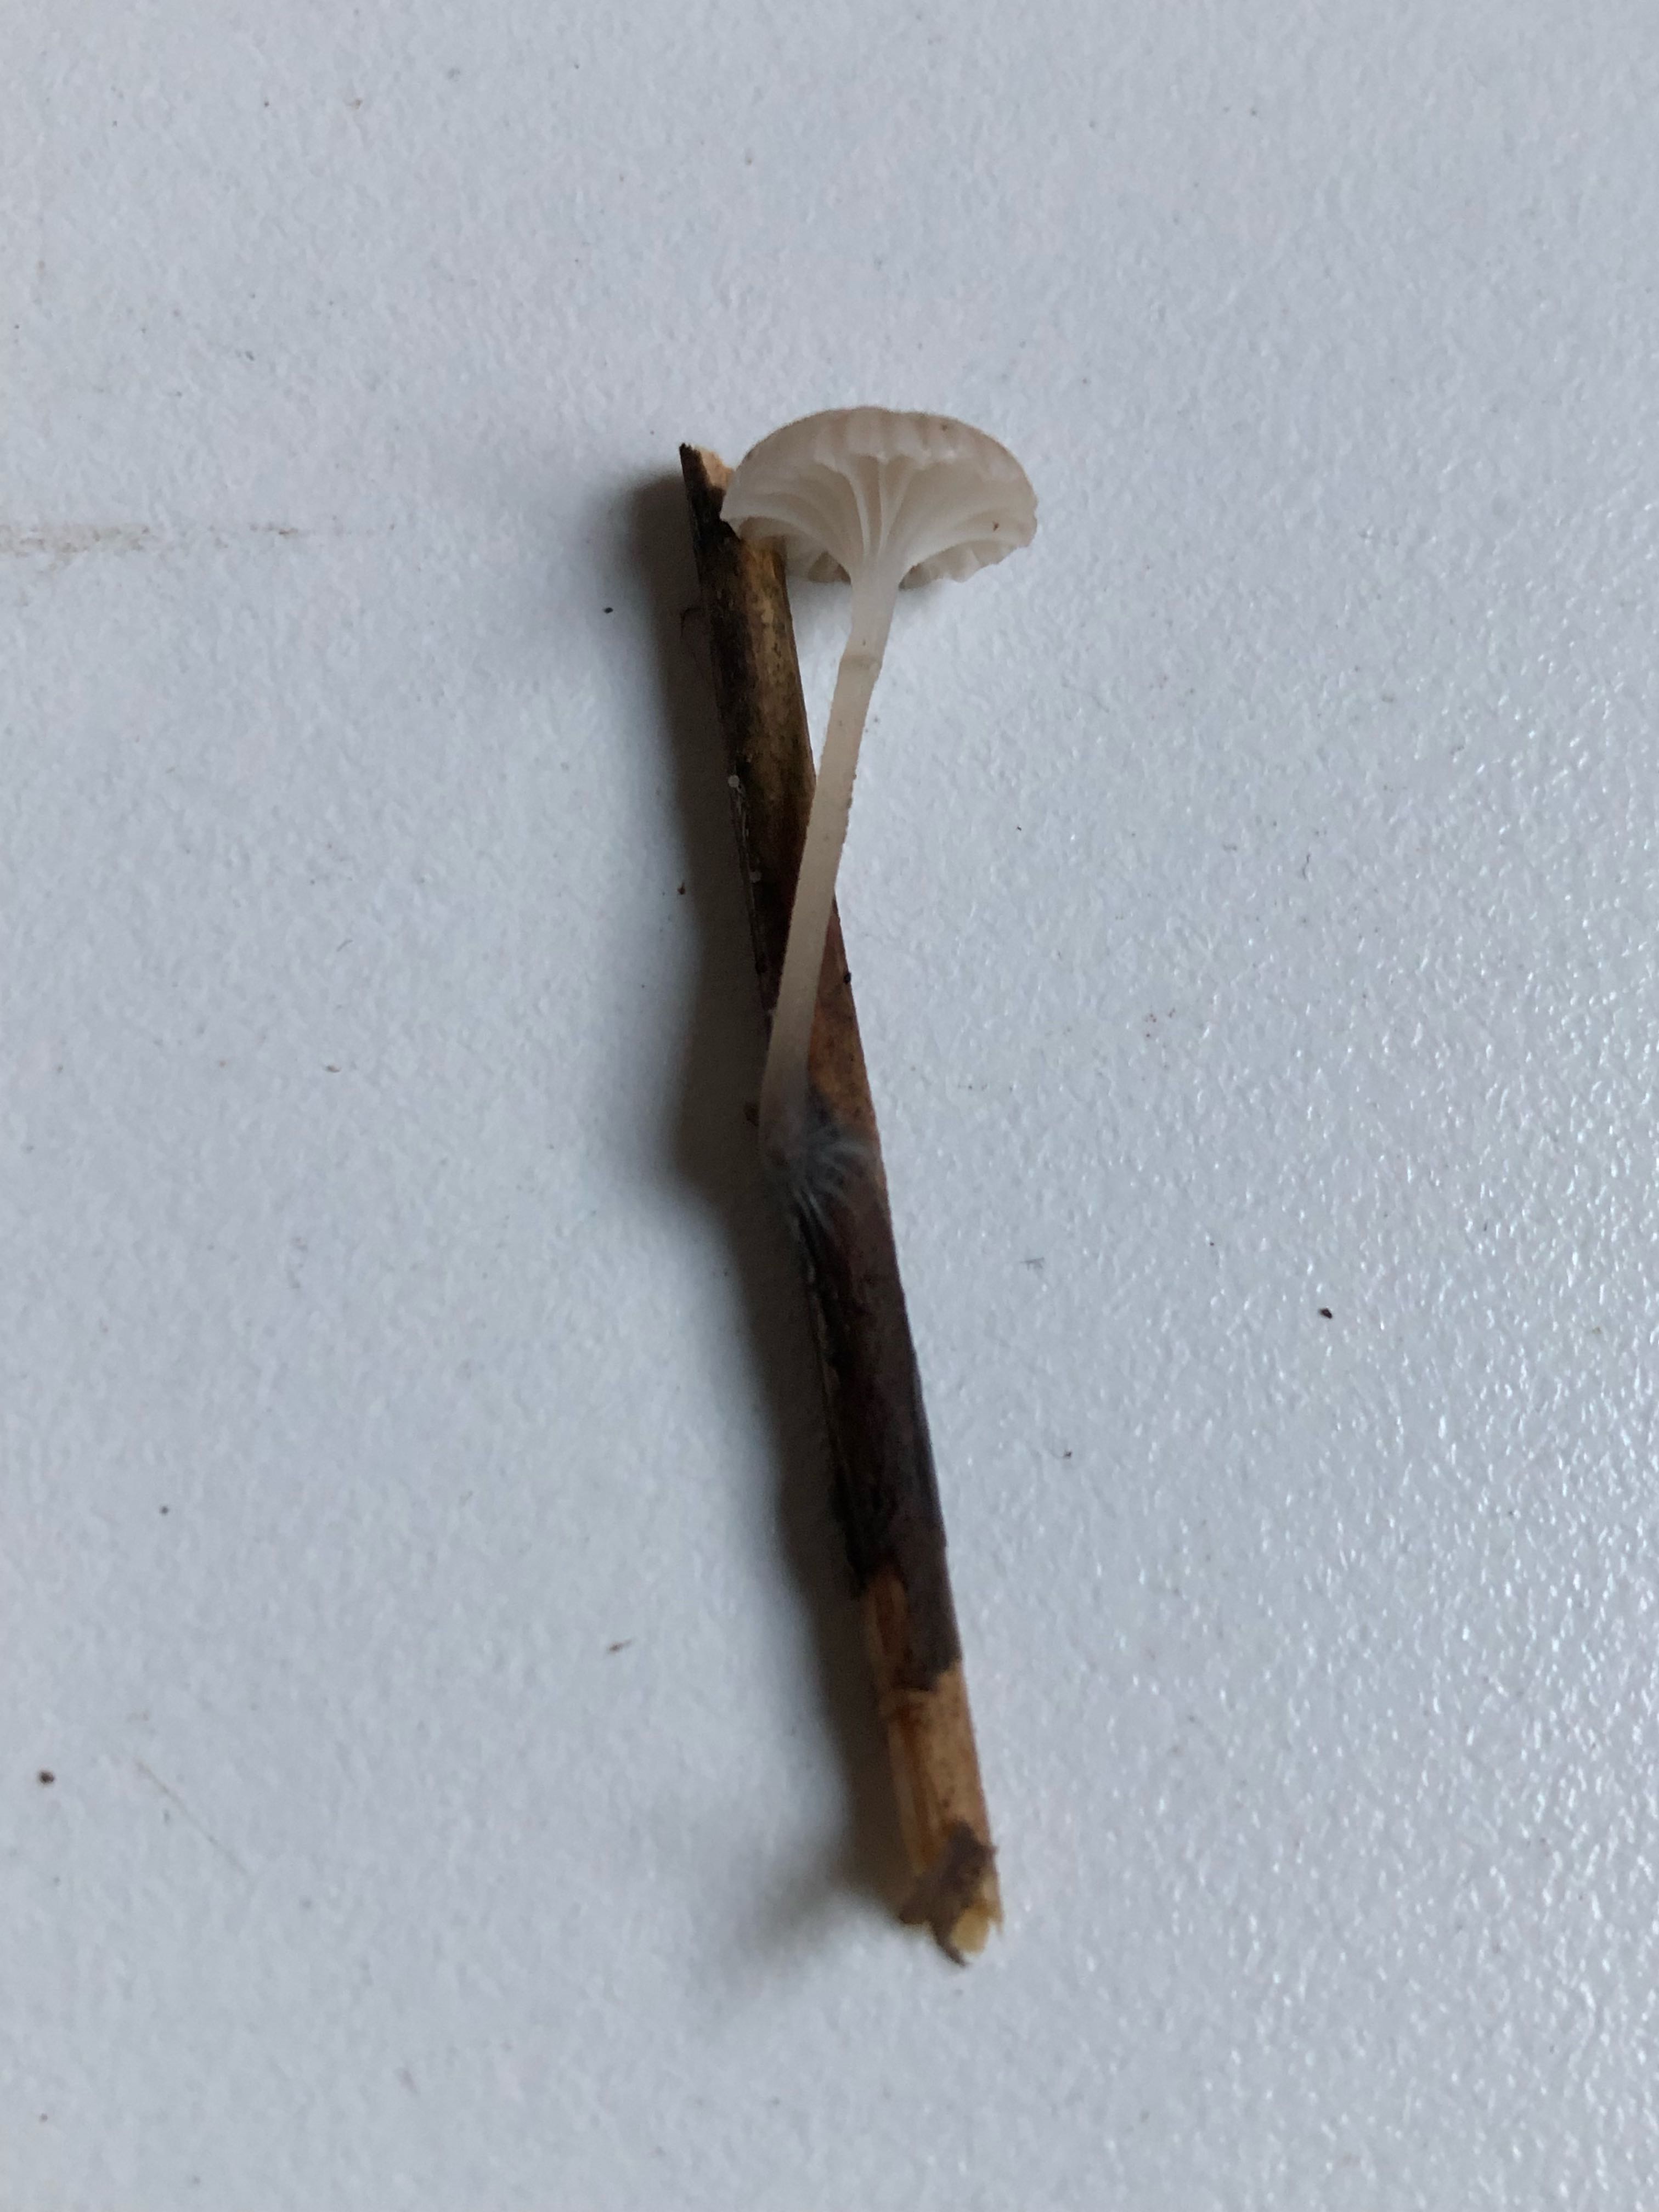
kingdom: Fungi
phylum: Basidiomycota
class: Agaricomycetes
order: Agaricales
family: Mycenaceae
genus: Mycena
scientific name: Mycena belliae
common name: tagrørs-huesvamp
